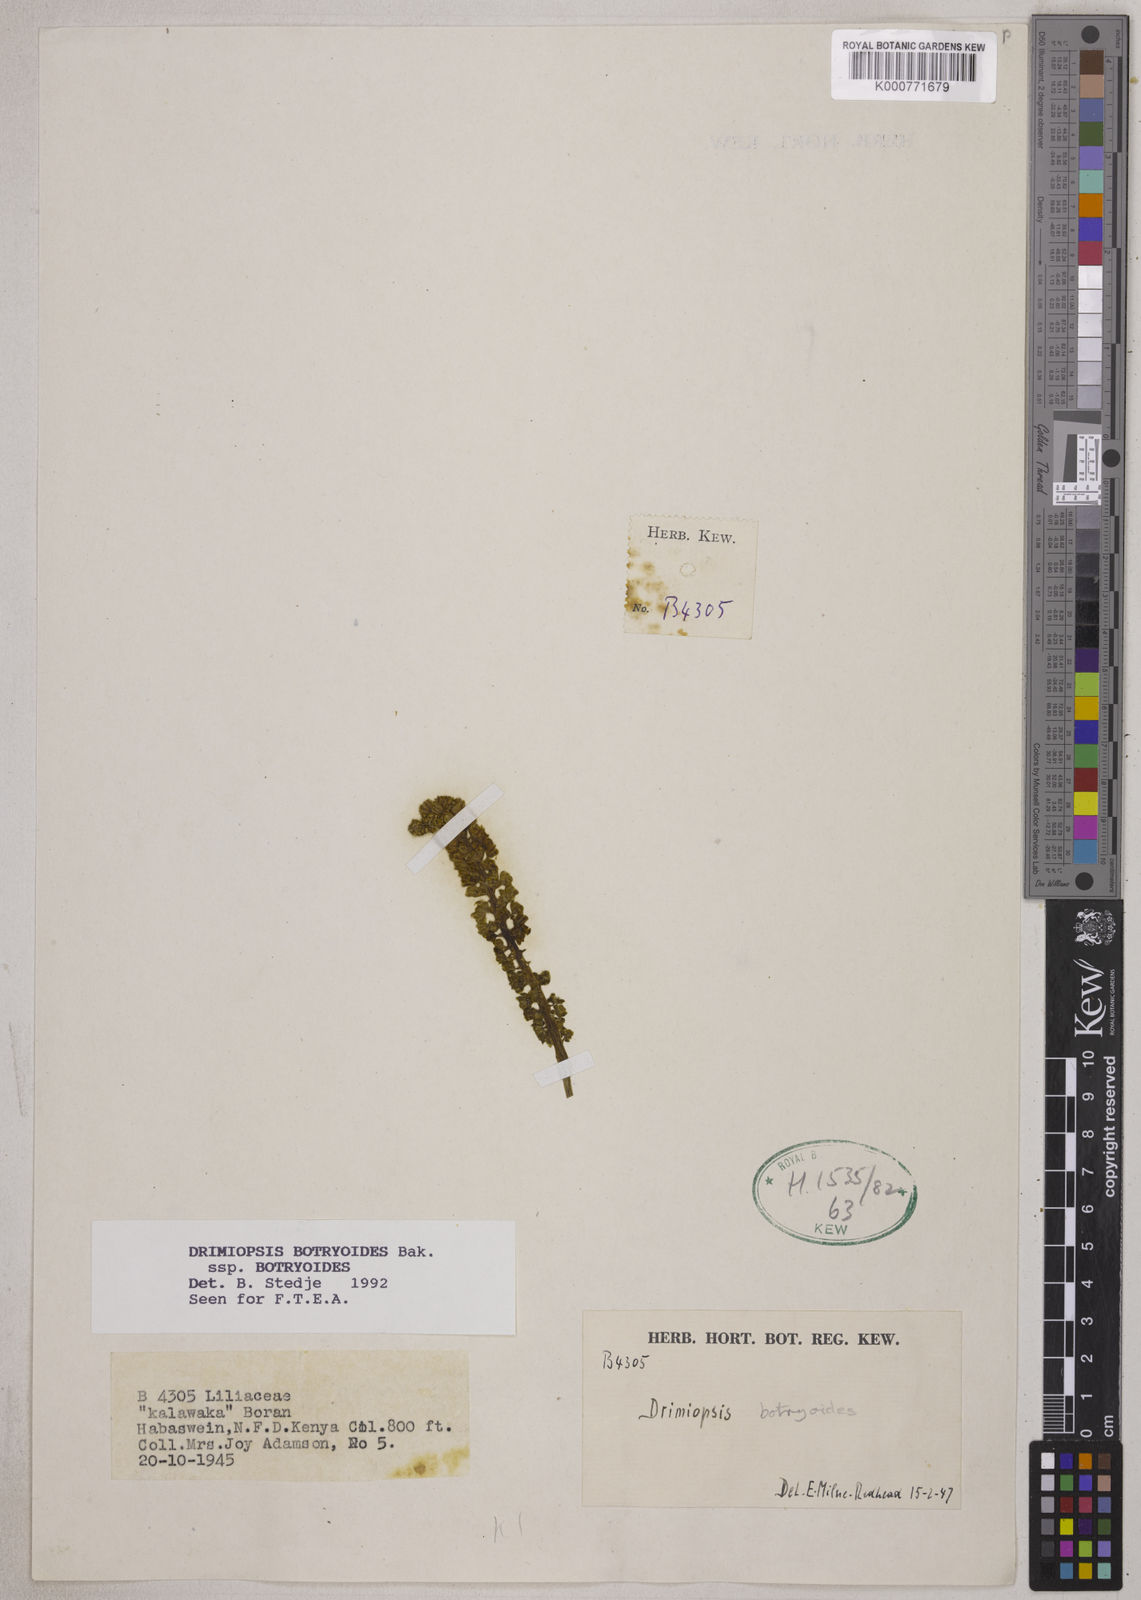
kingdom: Plantae
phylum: Tracheophyta
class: Liliopsida
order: Asparagales
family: Asparagaceae
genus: Drimiopsis
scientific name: Drimiopsis botryoides
